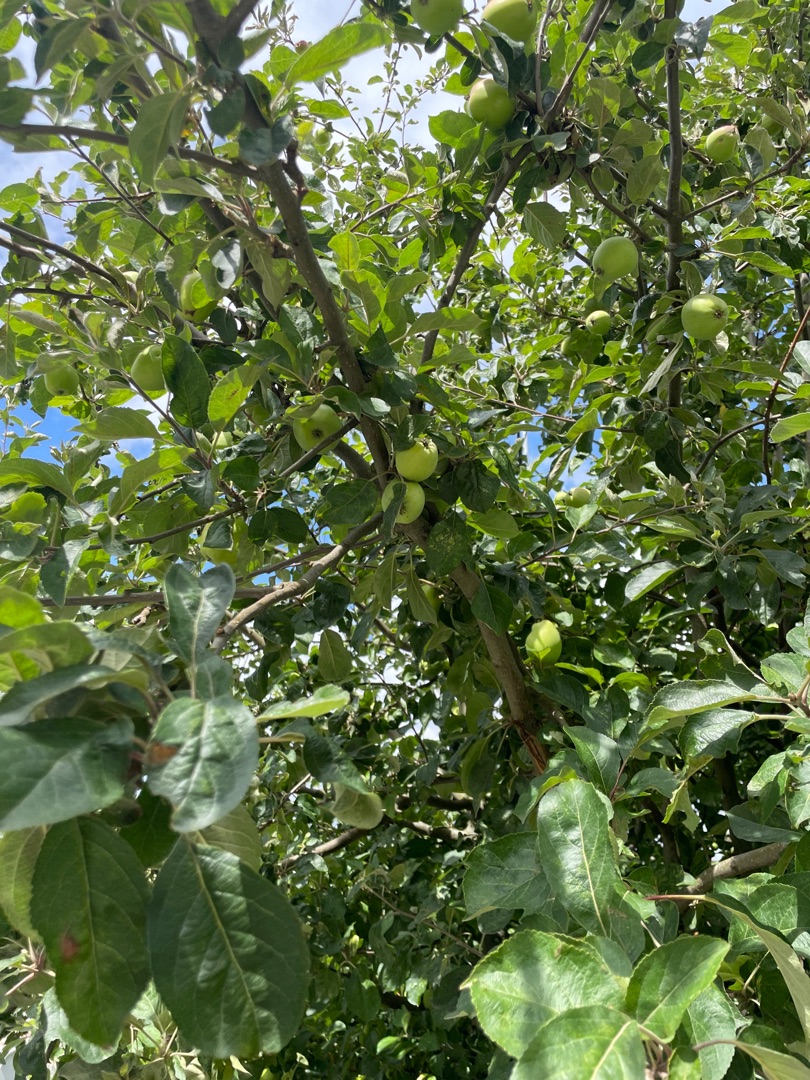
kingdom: Plantae
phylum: Tracheophyta
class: Magnoliopsida
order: Rosales
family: Rosaceae
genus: Malus
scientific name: Malus domestica
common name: Sød-æble
